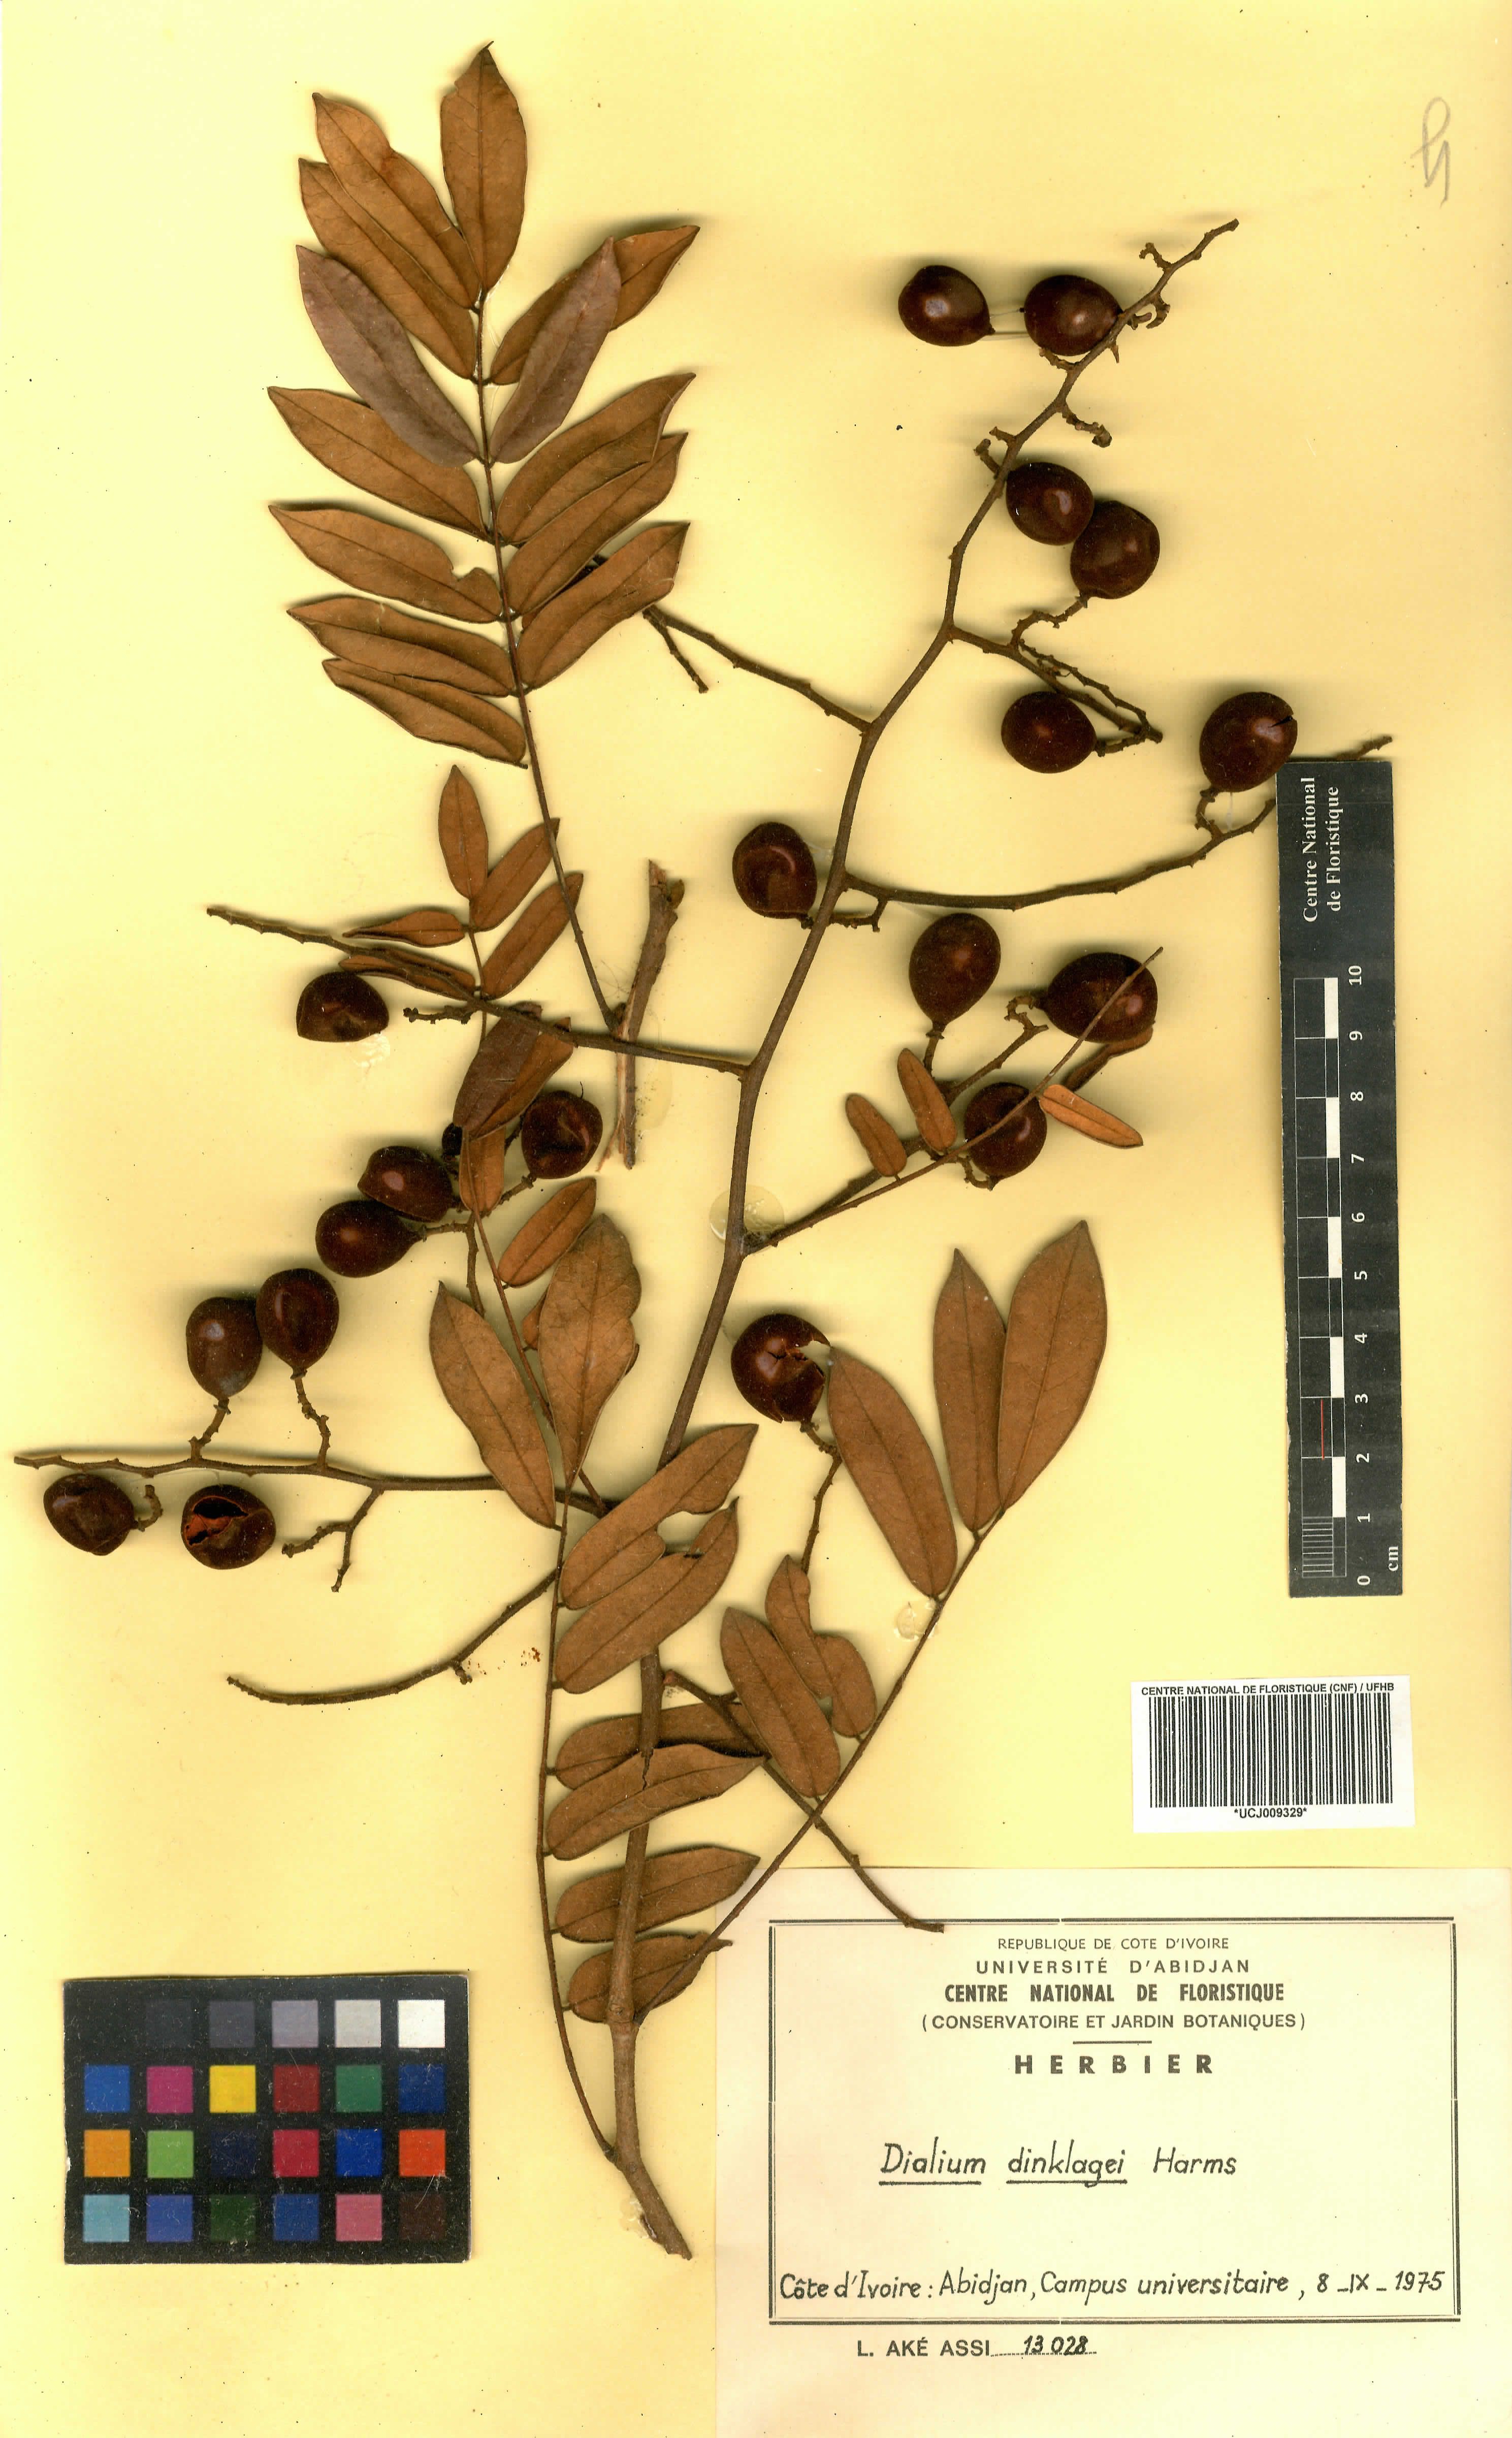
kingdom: Plantae
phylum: Tracheophyta
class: Magnoliopsida
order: Fabales
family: Fabaceae
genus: Dialium
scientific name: Dialium dinklagei
